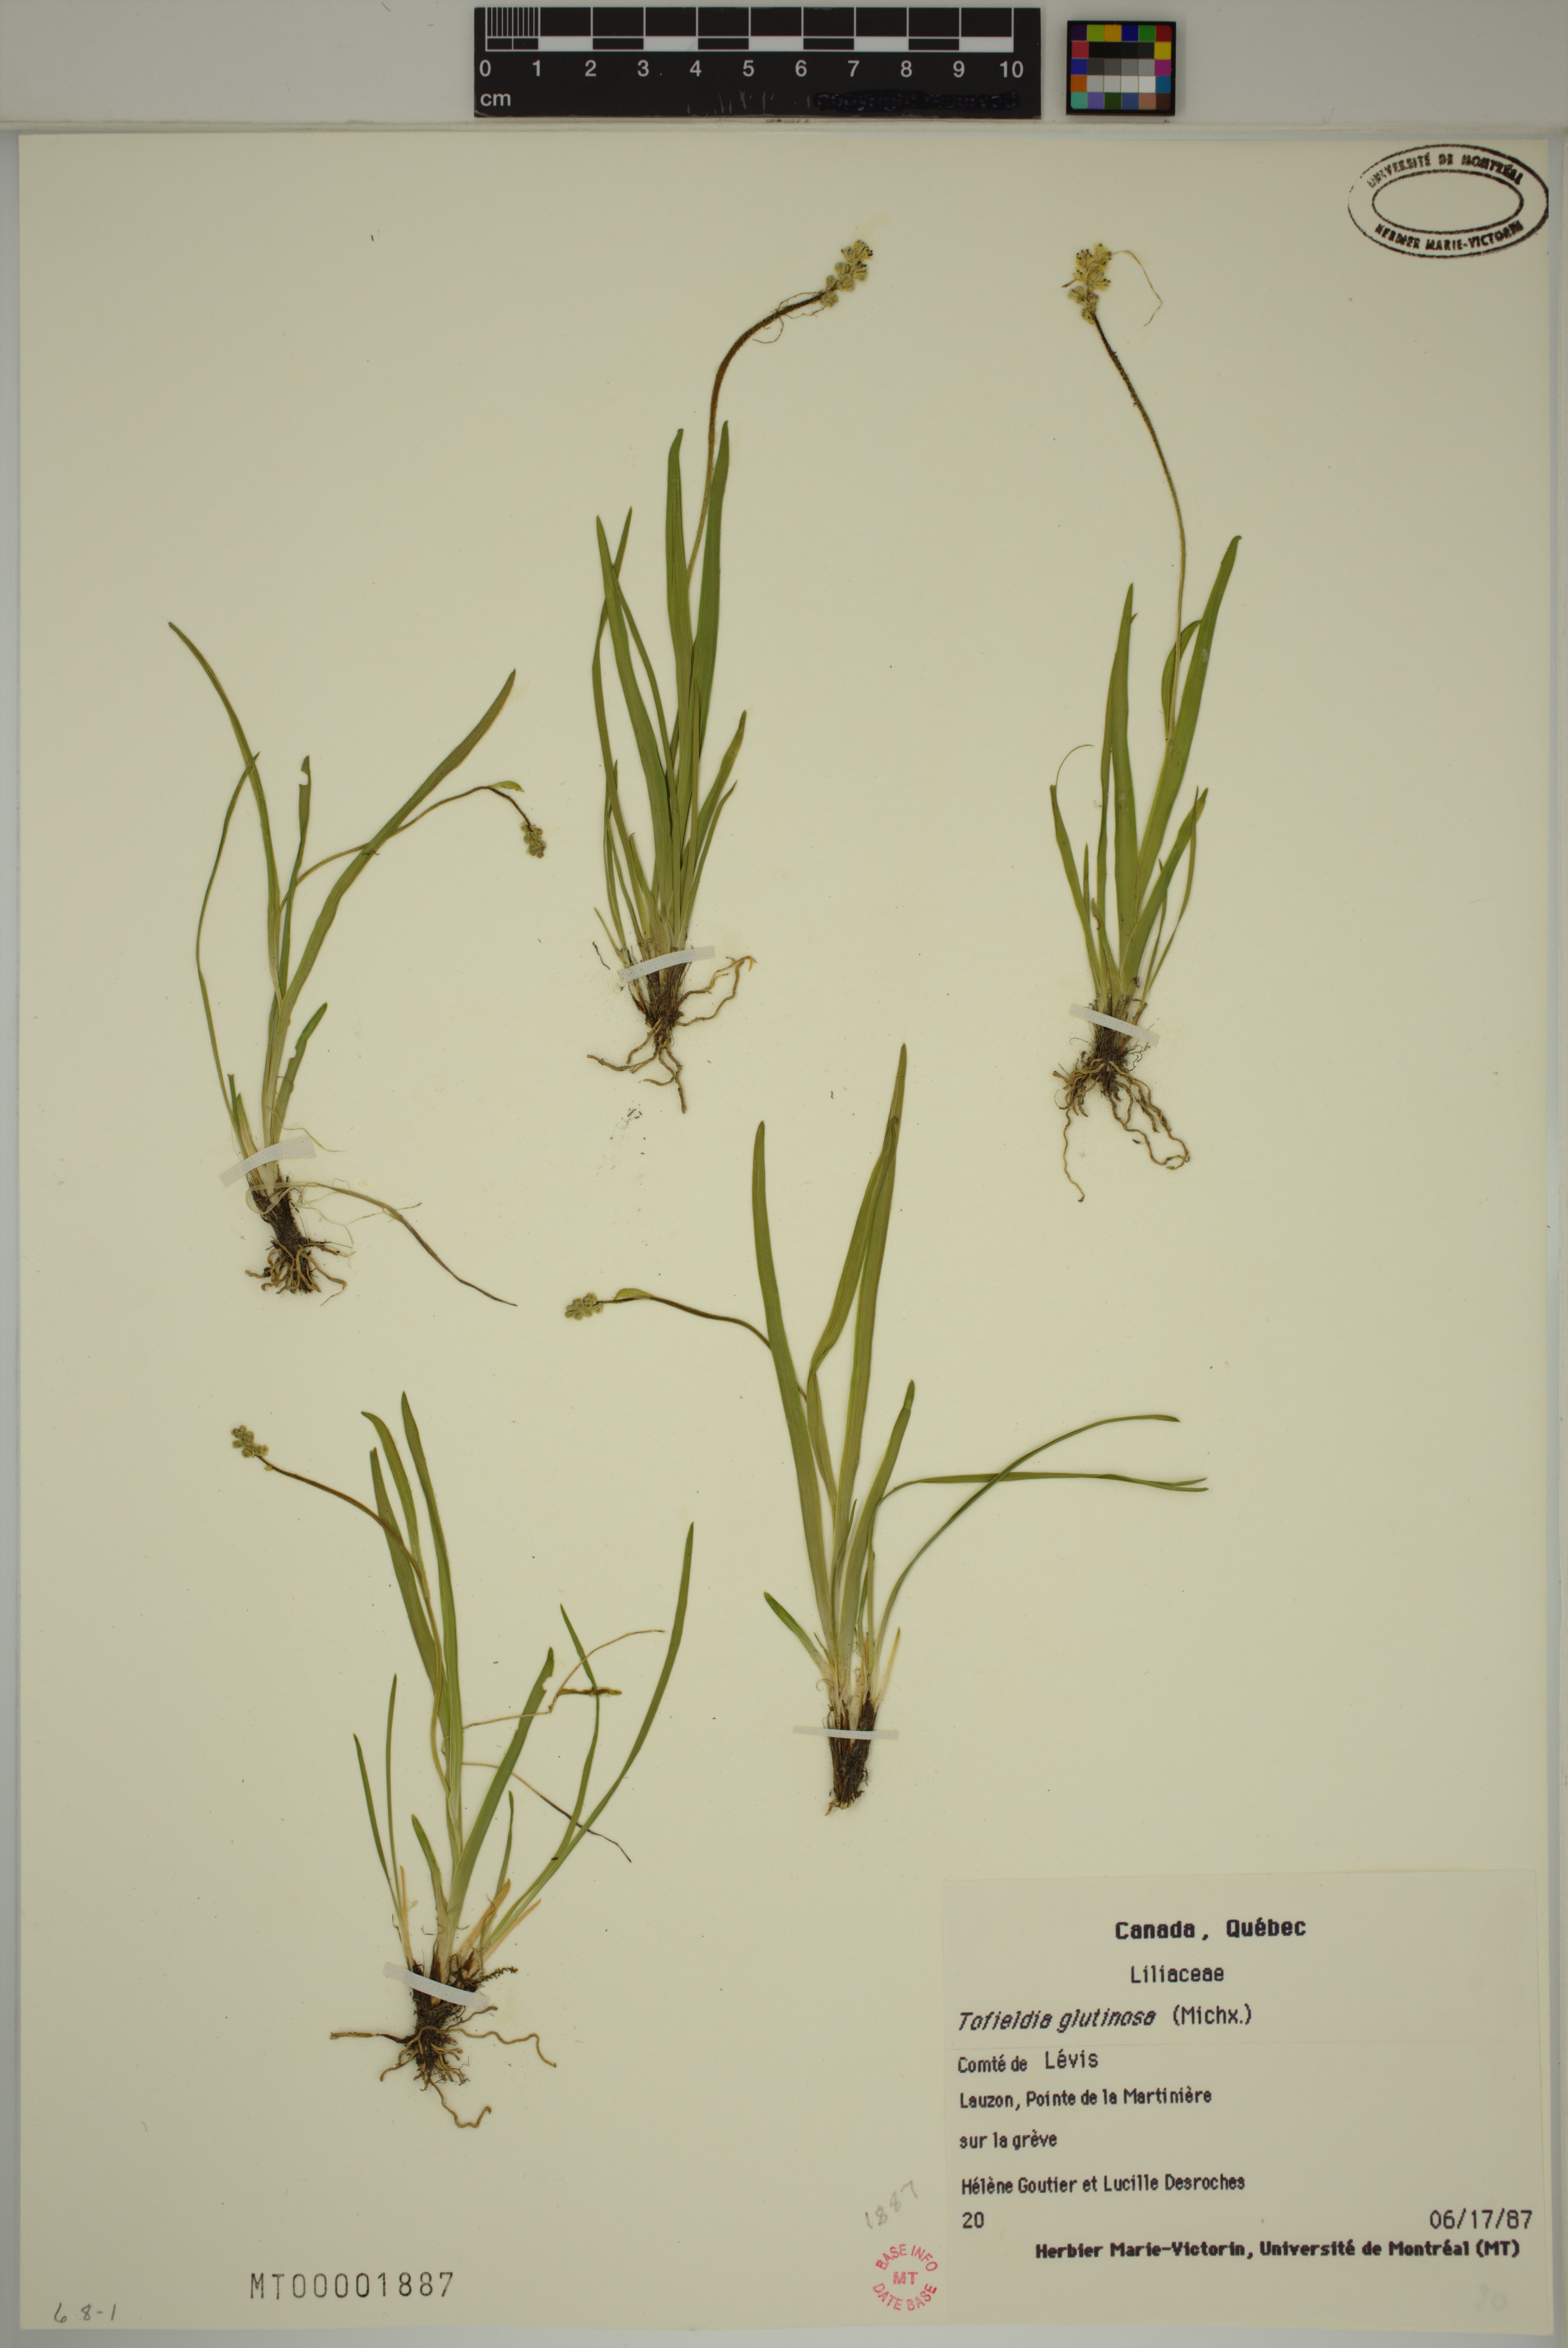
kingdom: Plantae
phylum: Tracheophyta
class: Liliopsida
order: Alismatales
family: Tofieldiaceae
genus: Triantha
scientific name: Triantha glutinosa
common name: Glutinous tofieldia
